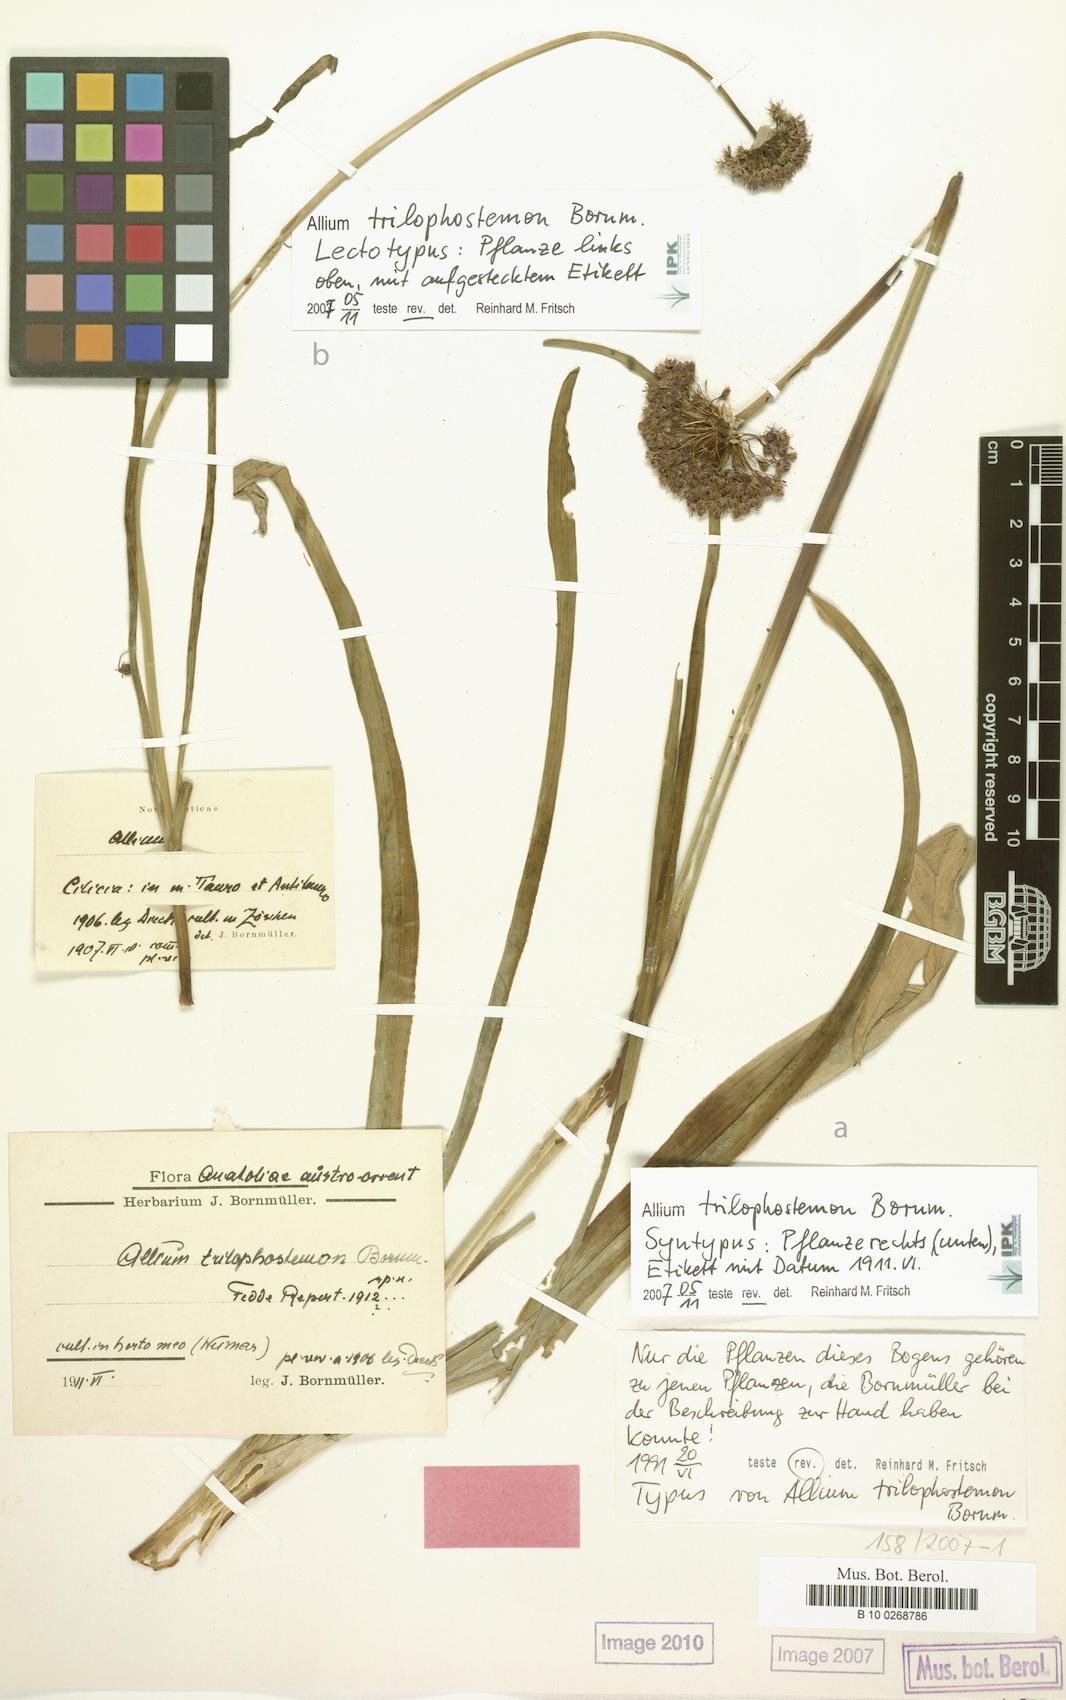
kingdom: Plantae
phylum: Tracheophyta
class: Liliopsida
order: Asparagales
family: Amaryllidaceae
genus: Allium
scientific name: Allium cardiostemon
